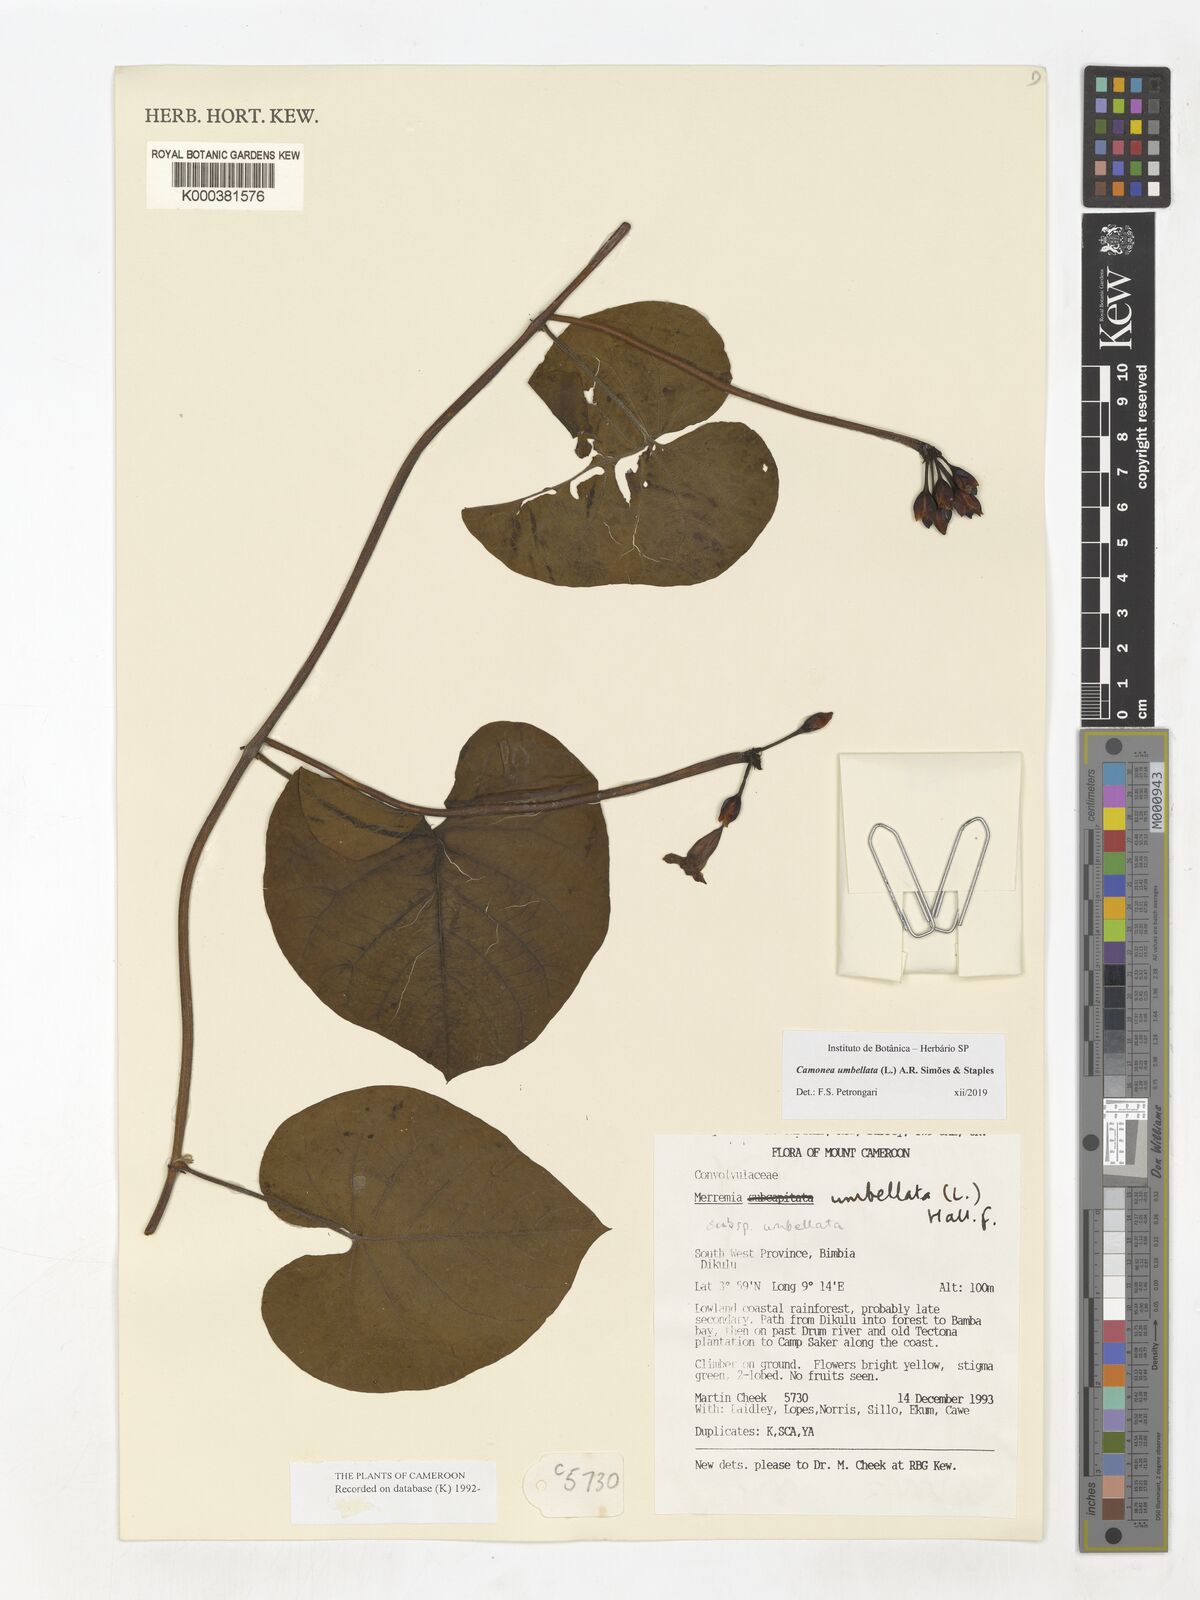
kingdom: Plantae
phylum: Tracheophyta
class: Magnoliopsida
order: Solanales
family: Convolvulaceae
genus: Camonea
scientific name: Camonea umbellata
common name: Hogvine
